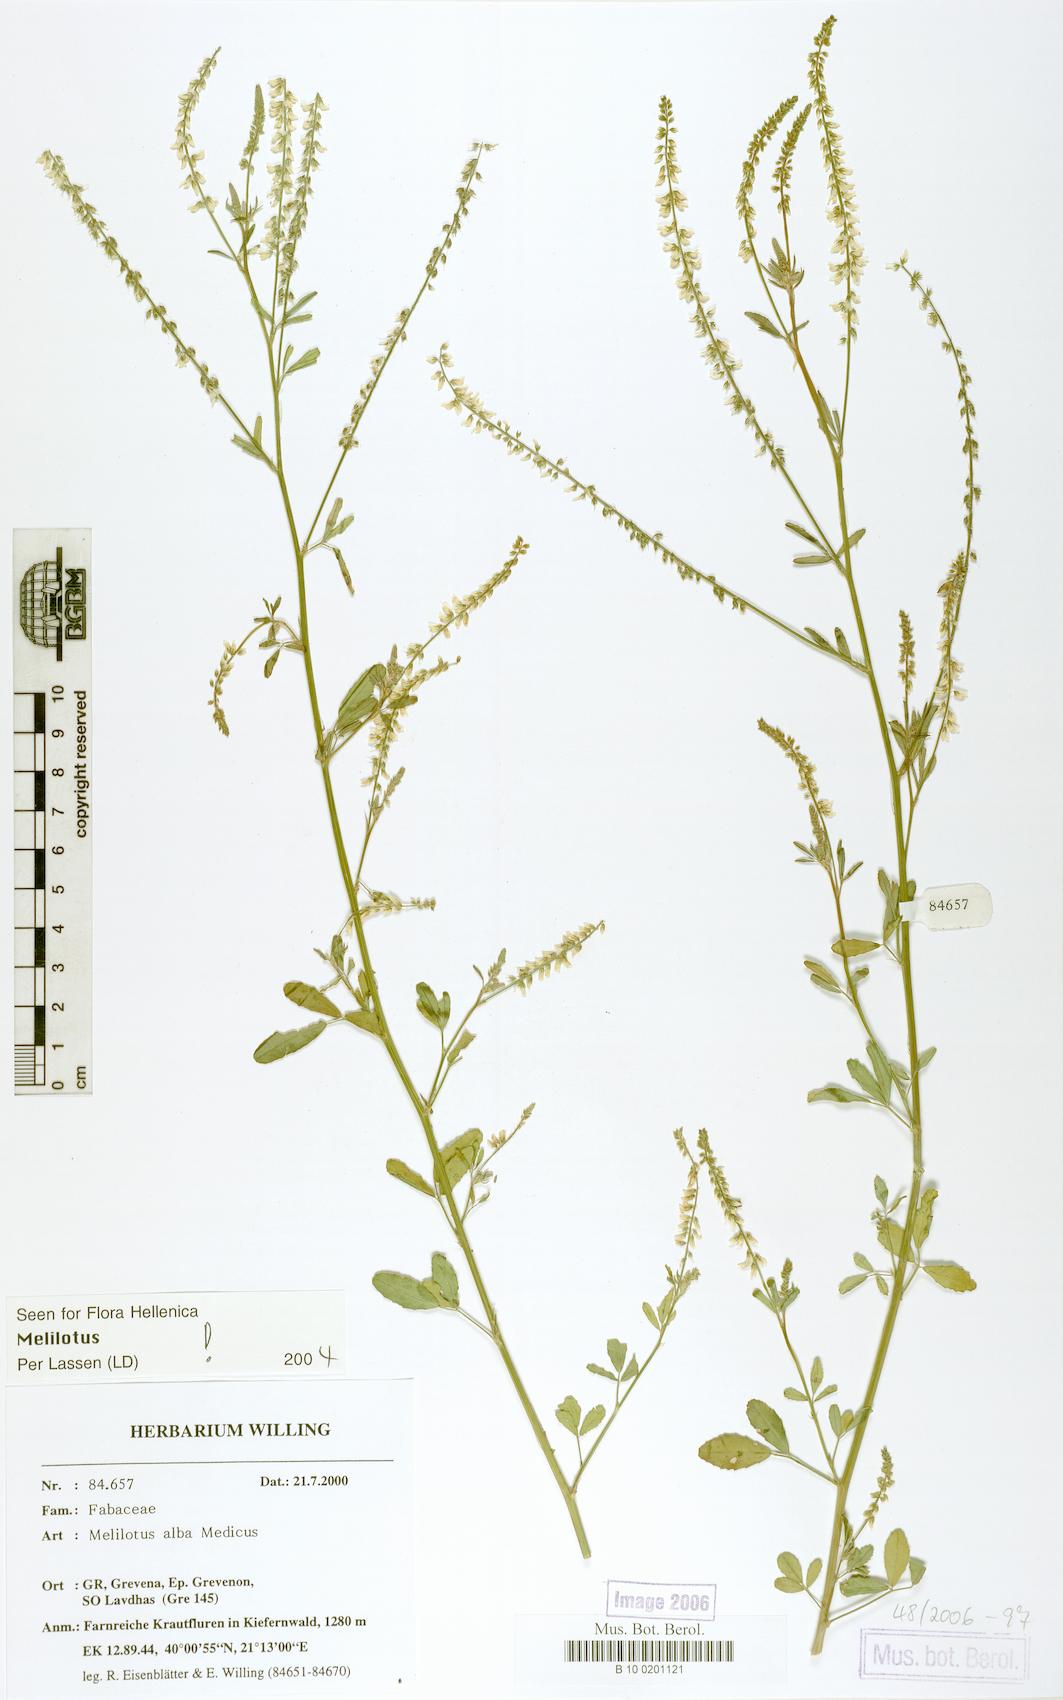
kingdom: Plantae
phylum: Tracheophyta
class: Magnoliopsida
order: Fabales
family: Fabaceae
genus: Melilotus
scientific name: Melilotus albus
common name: White melilot
